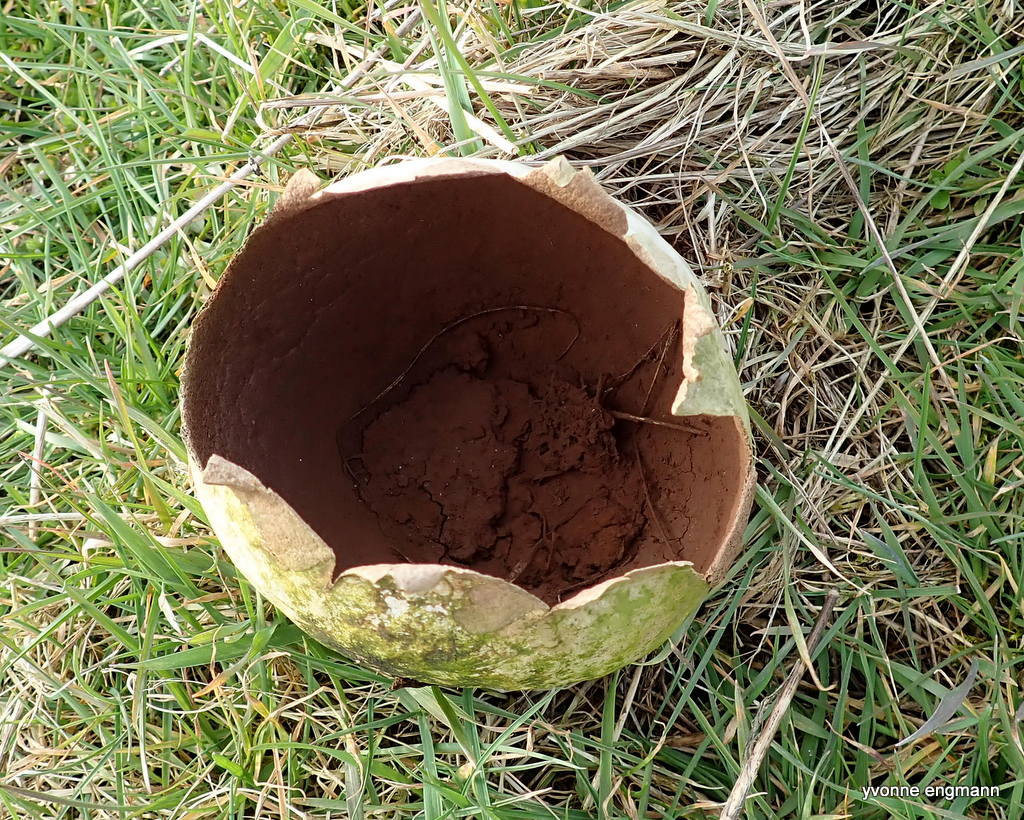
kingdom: Fungi
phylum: Basidiomycota
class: Agaricomycetes
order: Agaricales
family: Lycoperdaceae
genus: Bovistella
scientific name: Bovistella utriformis
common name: skællet støvbold
